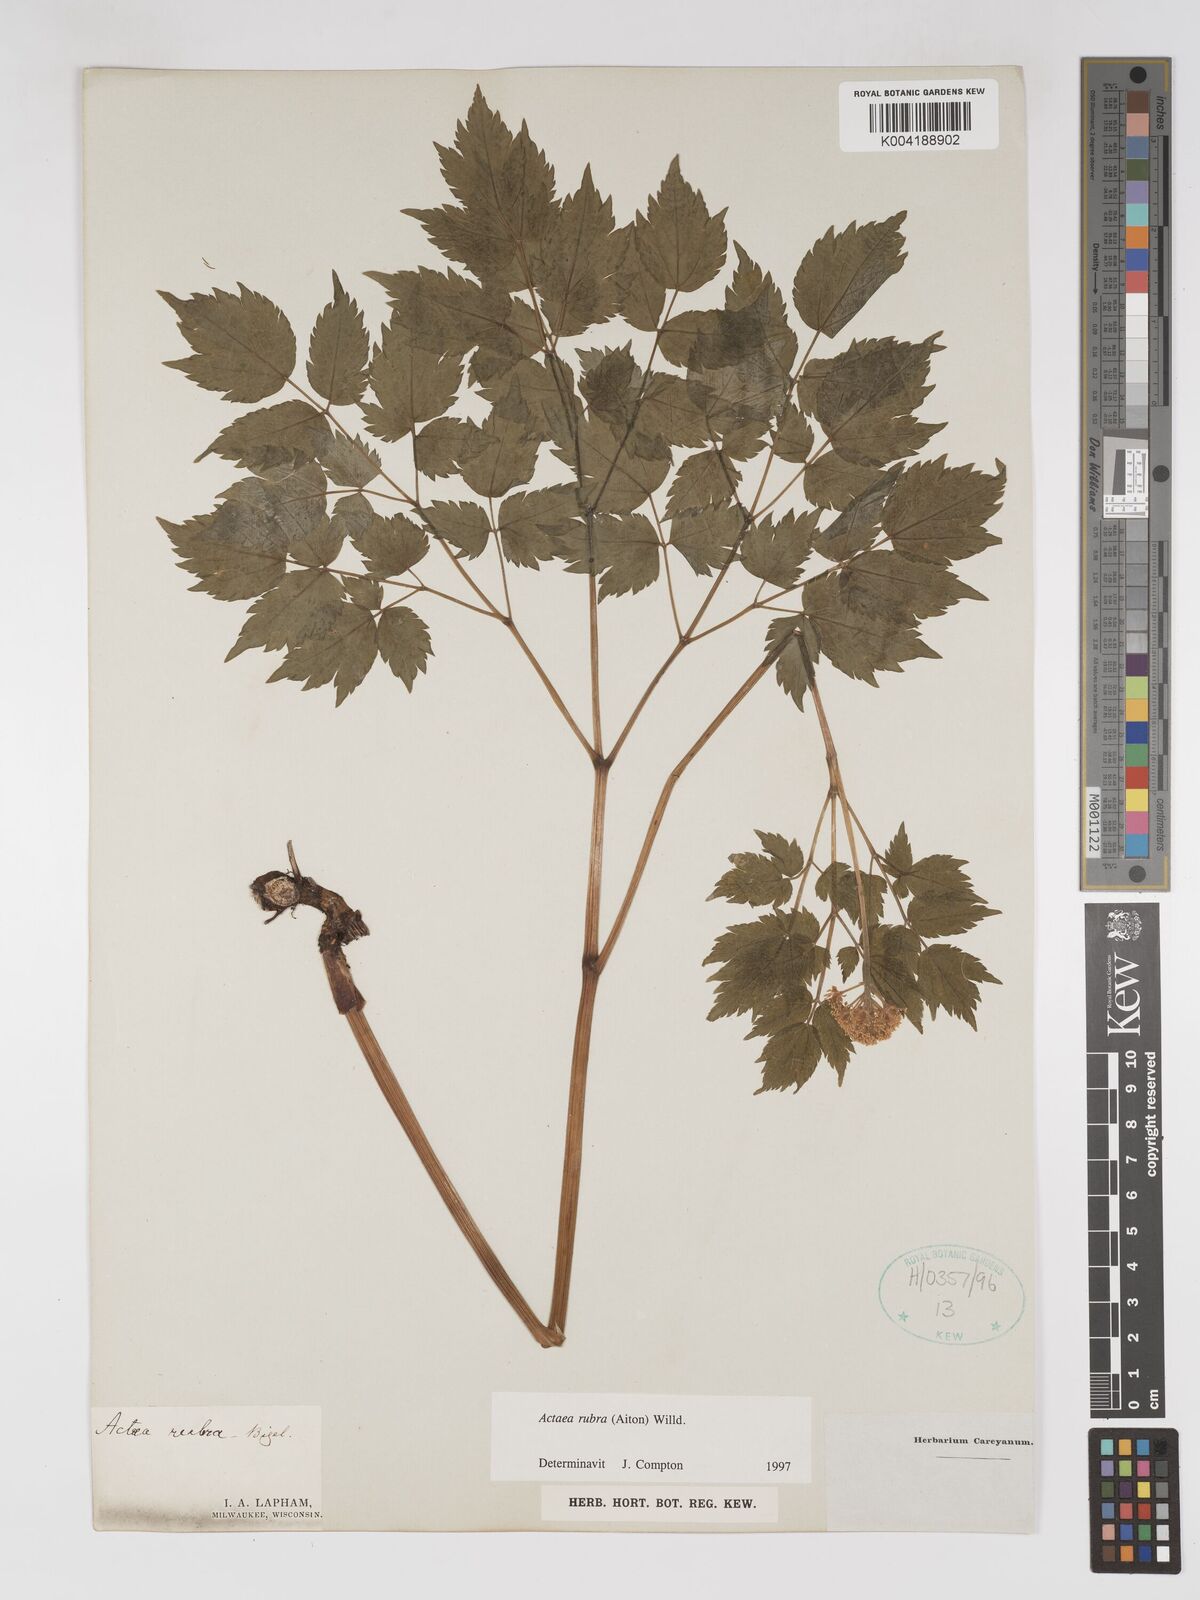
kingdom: Plantae
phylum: Tracheophyta
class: Magnoliopsida
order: Ranunculales
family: Ranunculaceae
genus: Actaea
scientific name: Actaea rubra
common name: Red baneberry
